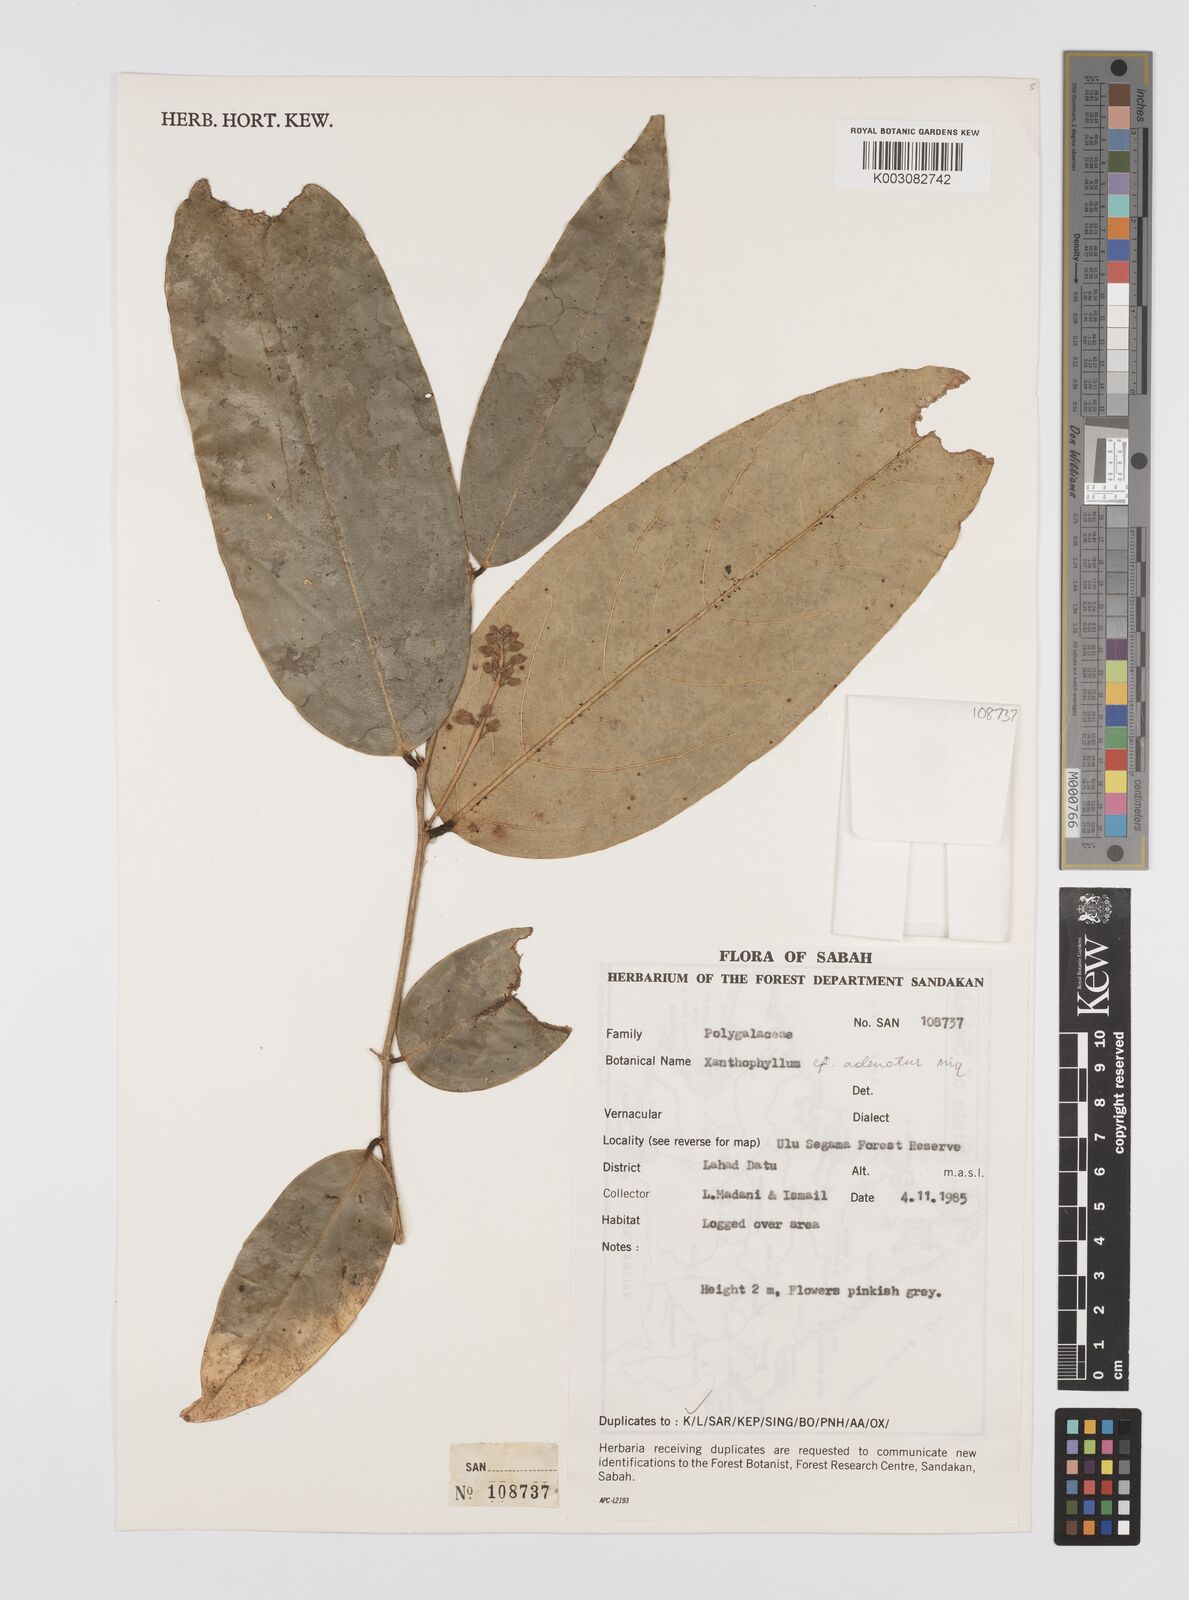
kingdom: Plantae
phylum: Tracheophyta
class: Magnoliopsida
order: Fabales
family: Polygalaceae
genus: Xanthophyllum
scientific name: Xanthophyllum adenotus
